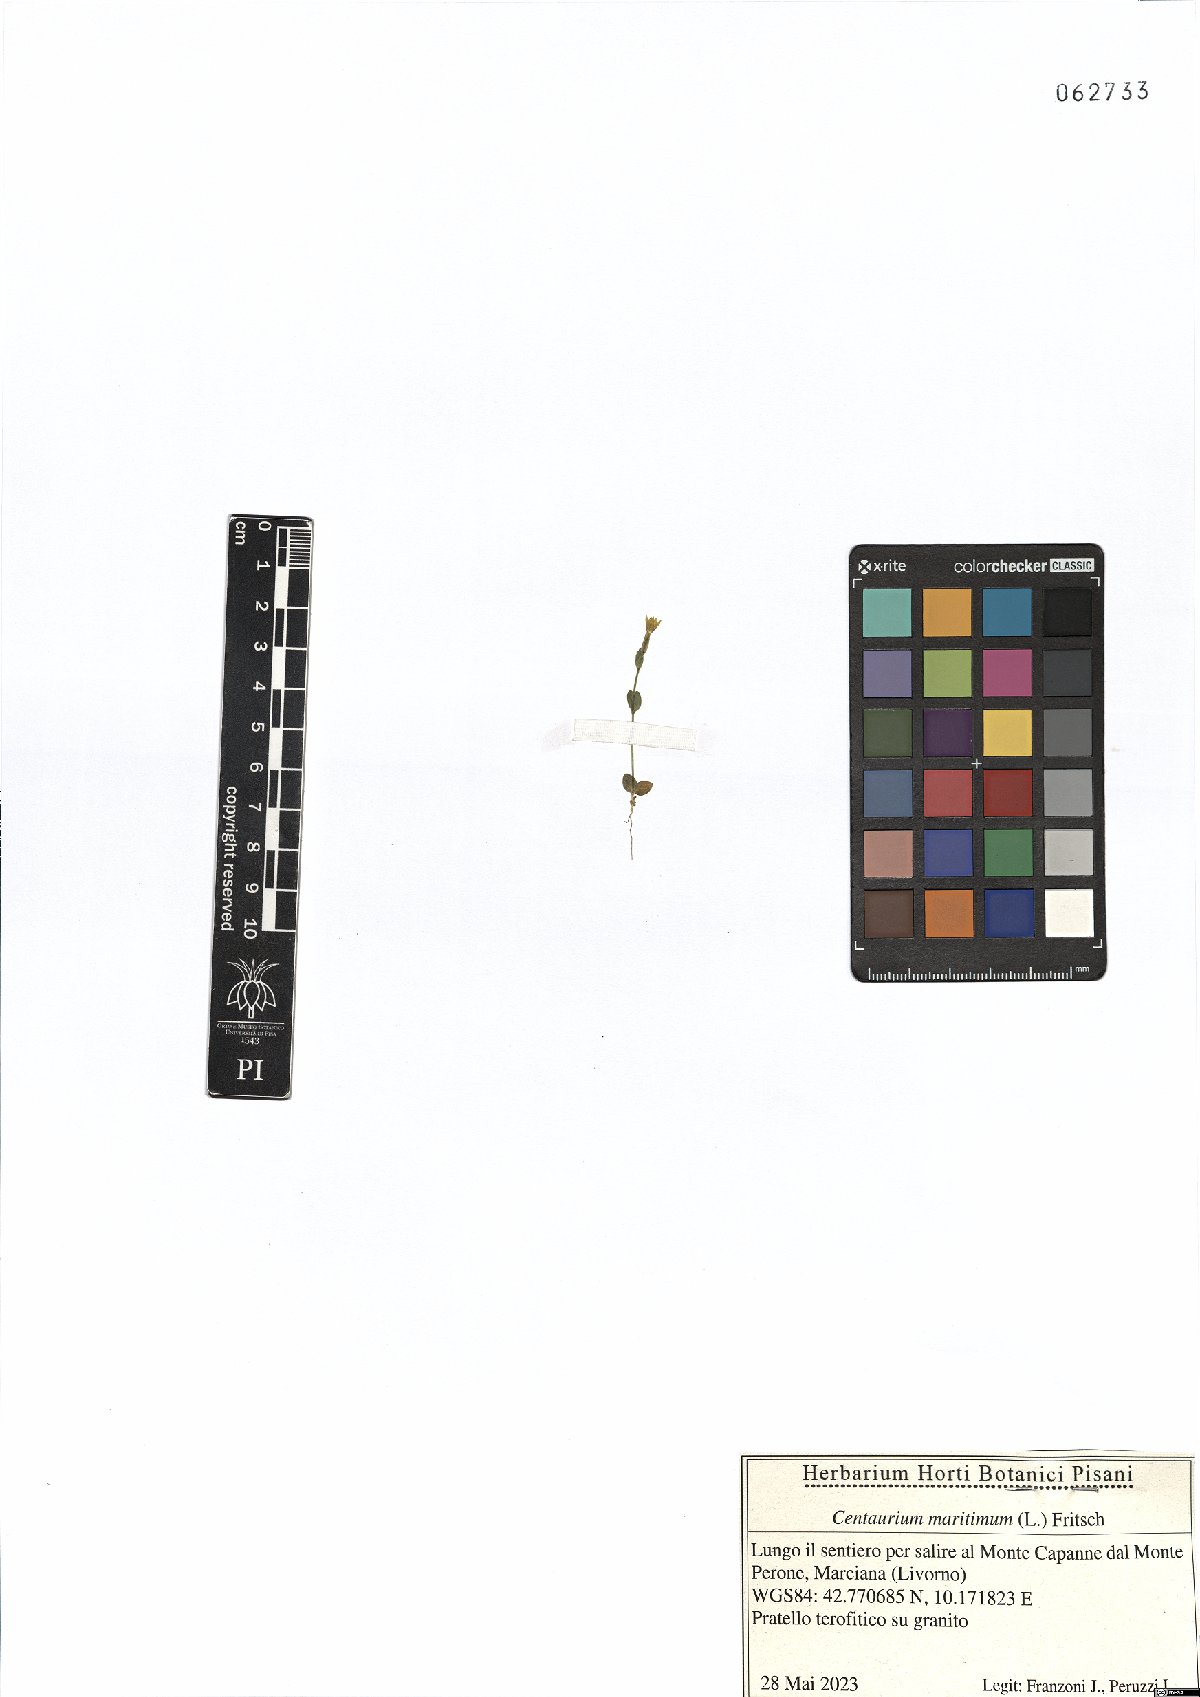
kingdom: Plantae
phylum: Tracheophyta
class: Magnoliopsida
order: Gentianales
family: Gentianaceae
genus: Centaurium
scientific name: Centaurium maritimum
